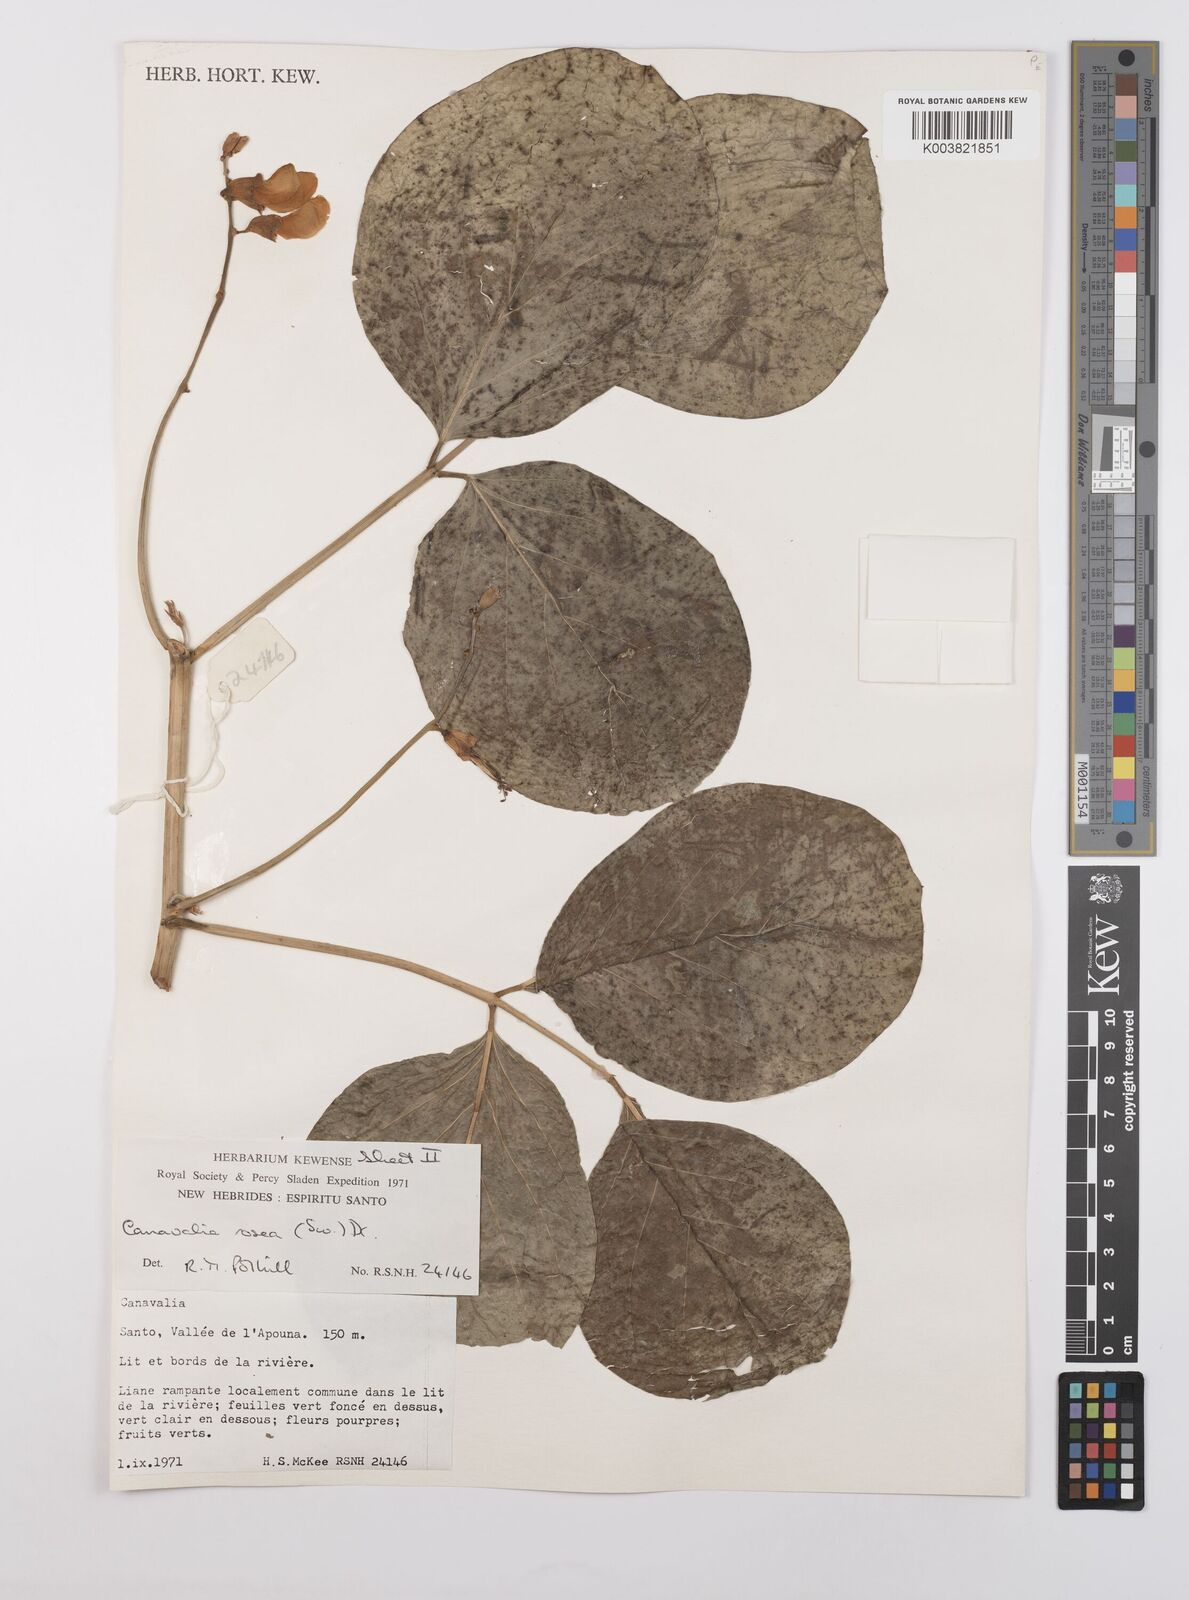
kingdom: Plantae
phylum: Tracheophyta
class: Magnoliopsida
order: Fabales
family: Fabaceae
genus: Canavalia
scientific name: Canavalia rosea
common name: Beach-bean
